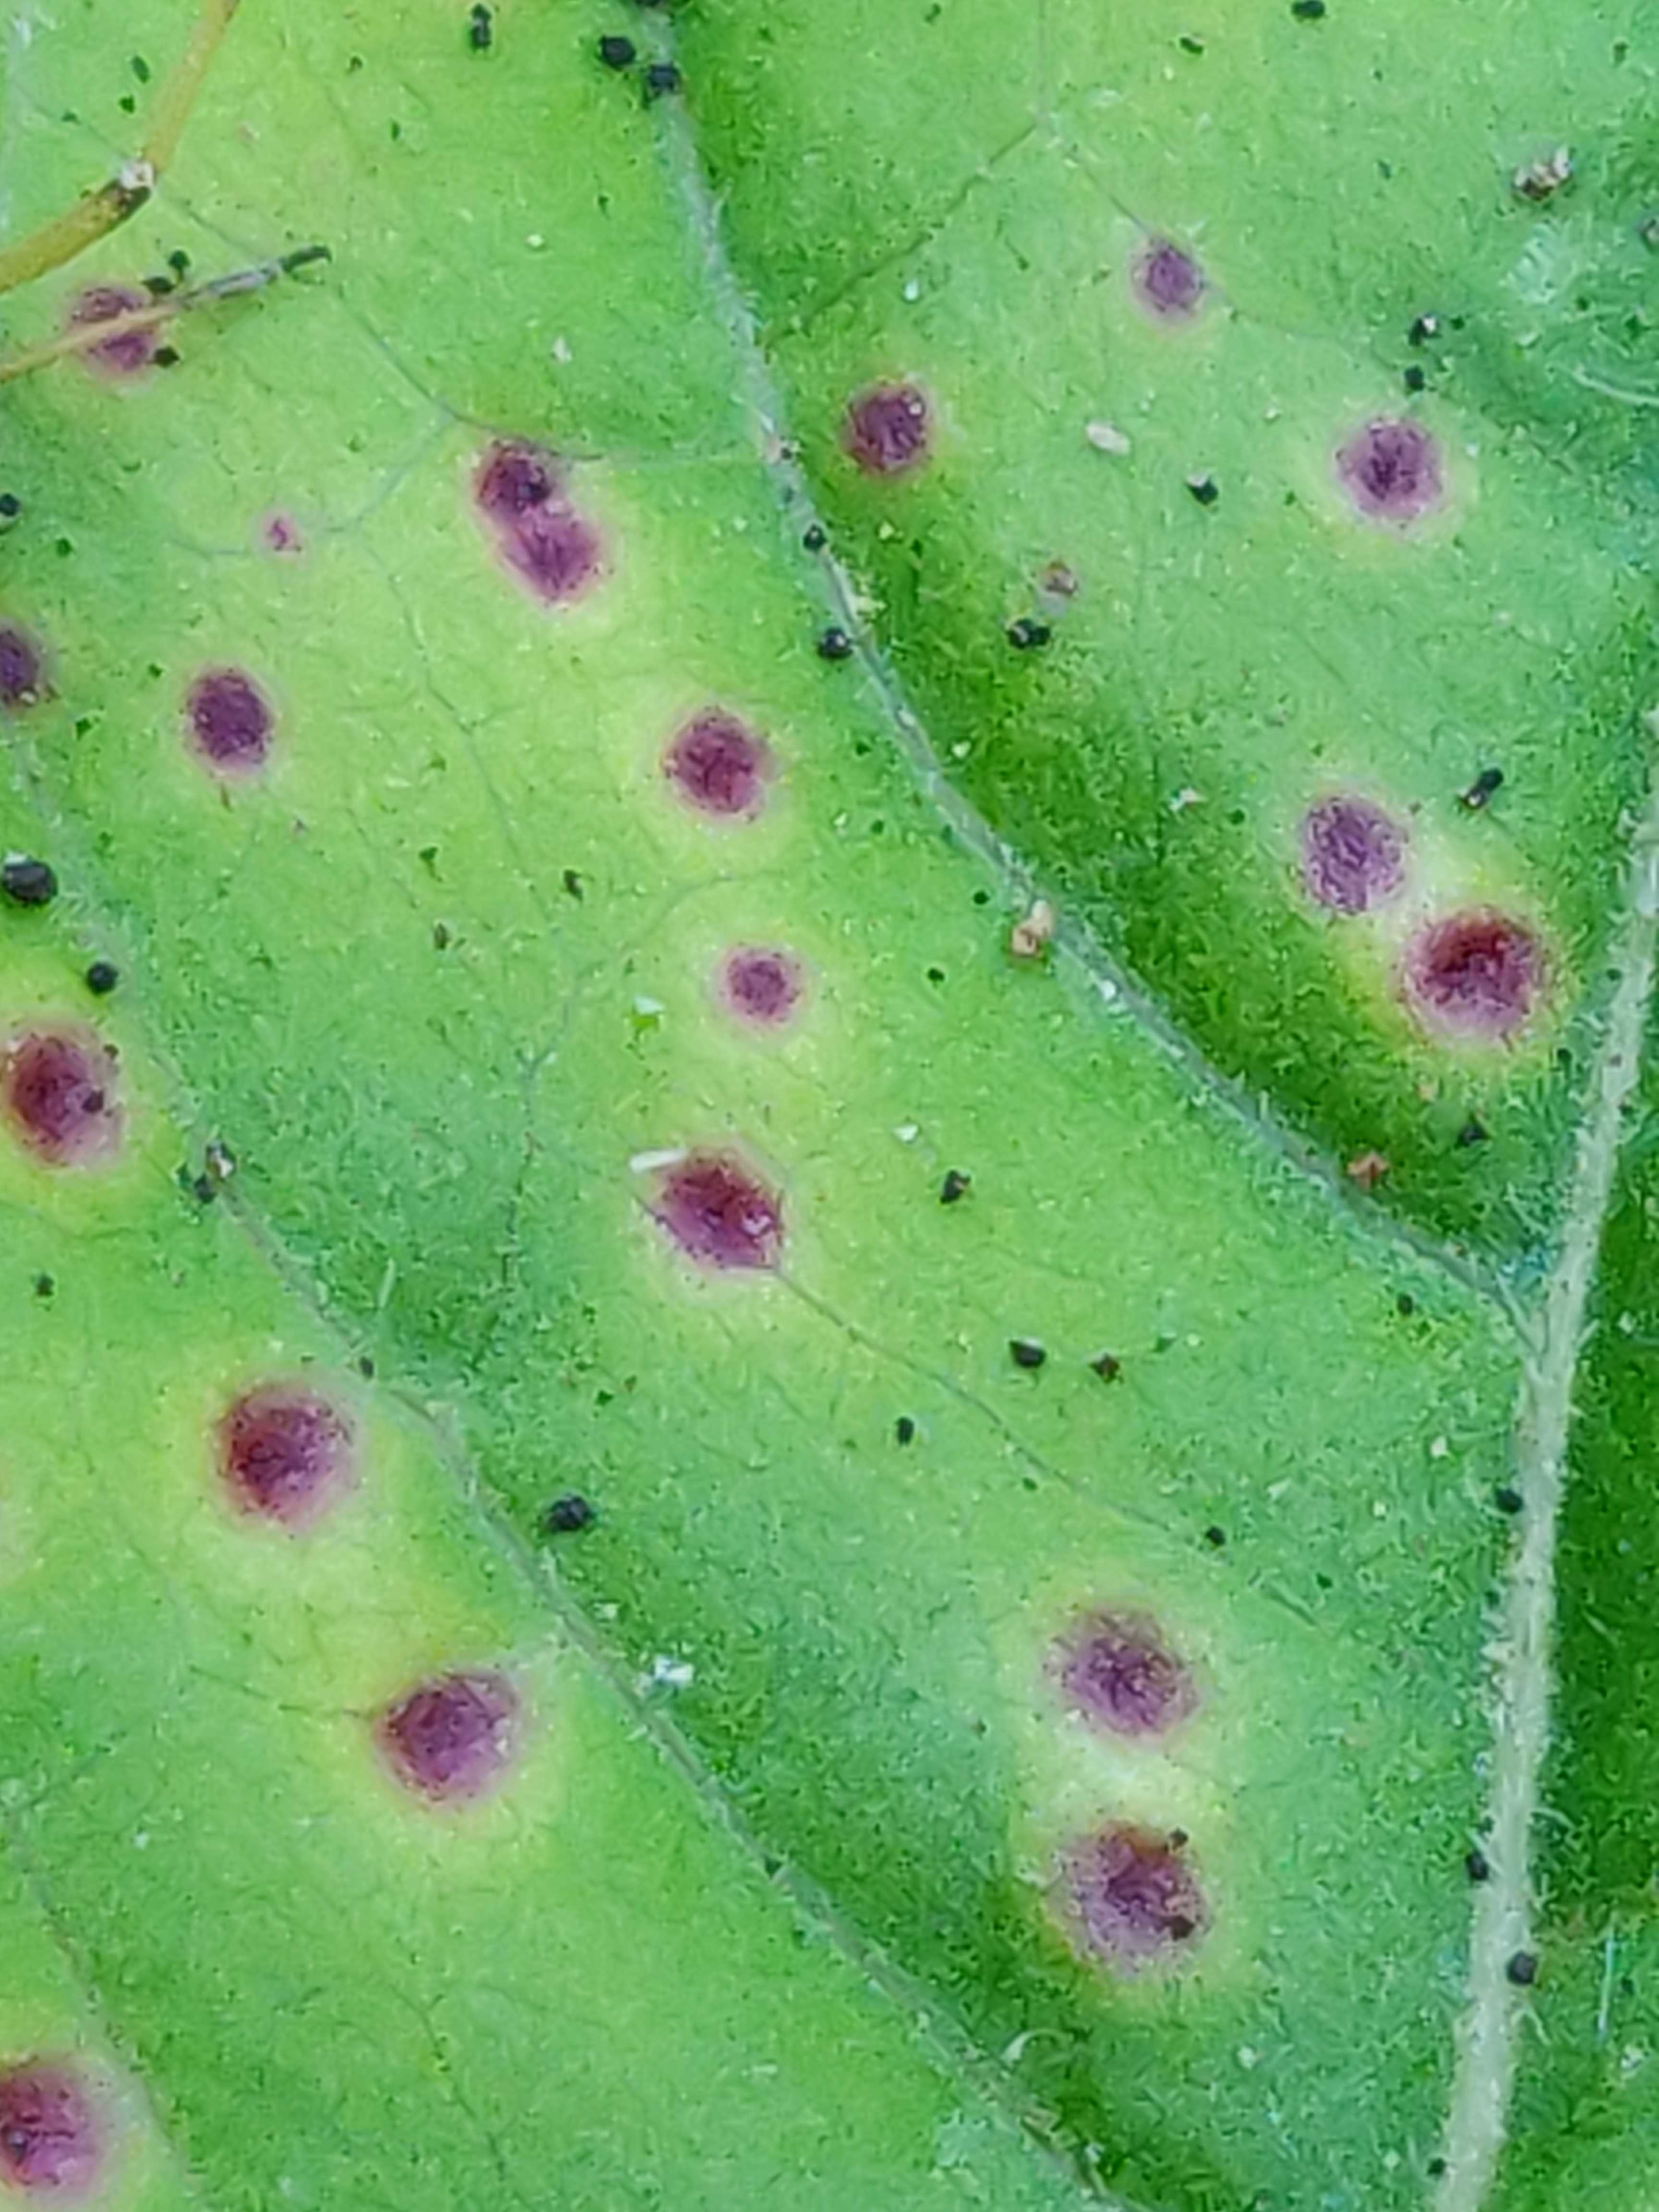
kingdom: Fungi
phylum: Basidiomycota
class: Pucciniomycetes
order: Pucciniales
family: Pucciniaceae
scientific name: Pucciniaceae
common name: rustsvampfamilien
